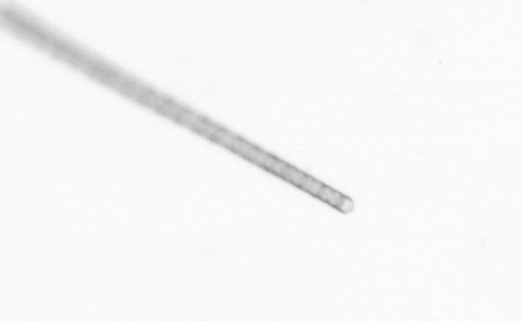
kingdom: Chromista
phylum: Ochrophyta
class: Bacillariophyceae
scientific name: Bacillariophyceae
